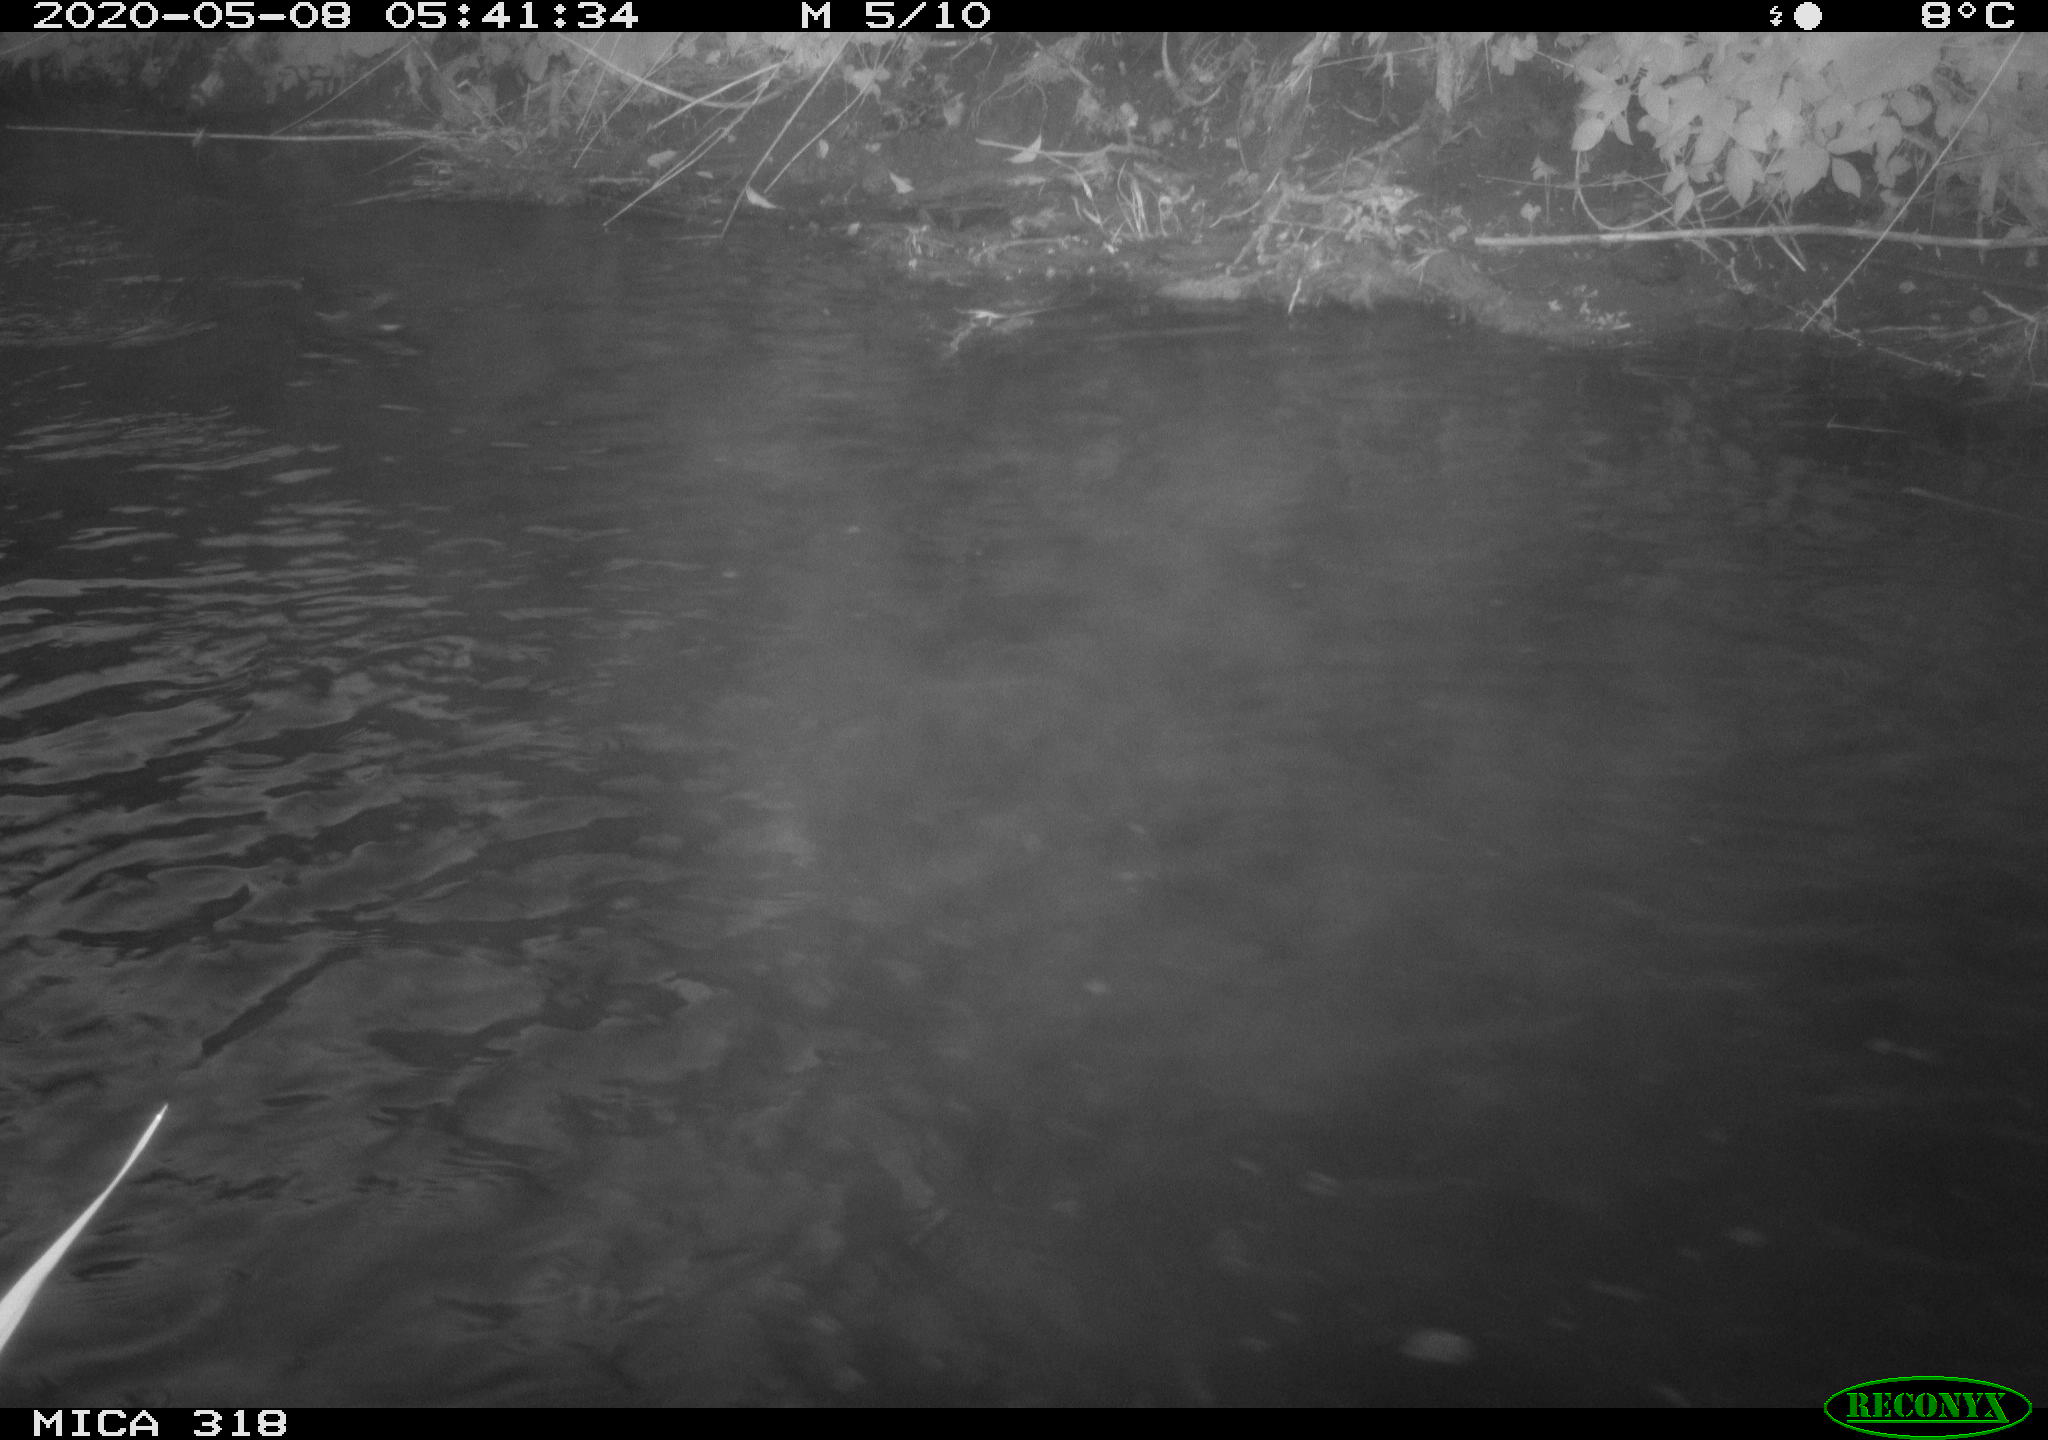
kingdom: Animalia
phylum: Chordata
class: Aves
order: Gruiformes
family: Rallidae
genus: Gallinula
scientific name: Gallinula chloropus
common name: Common moorhen
